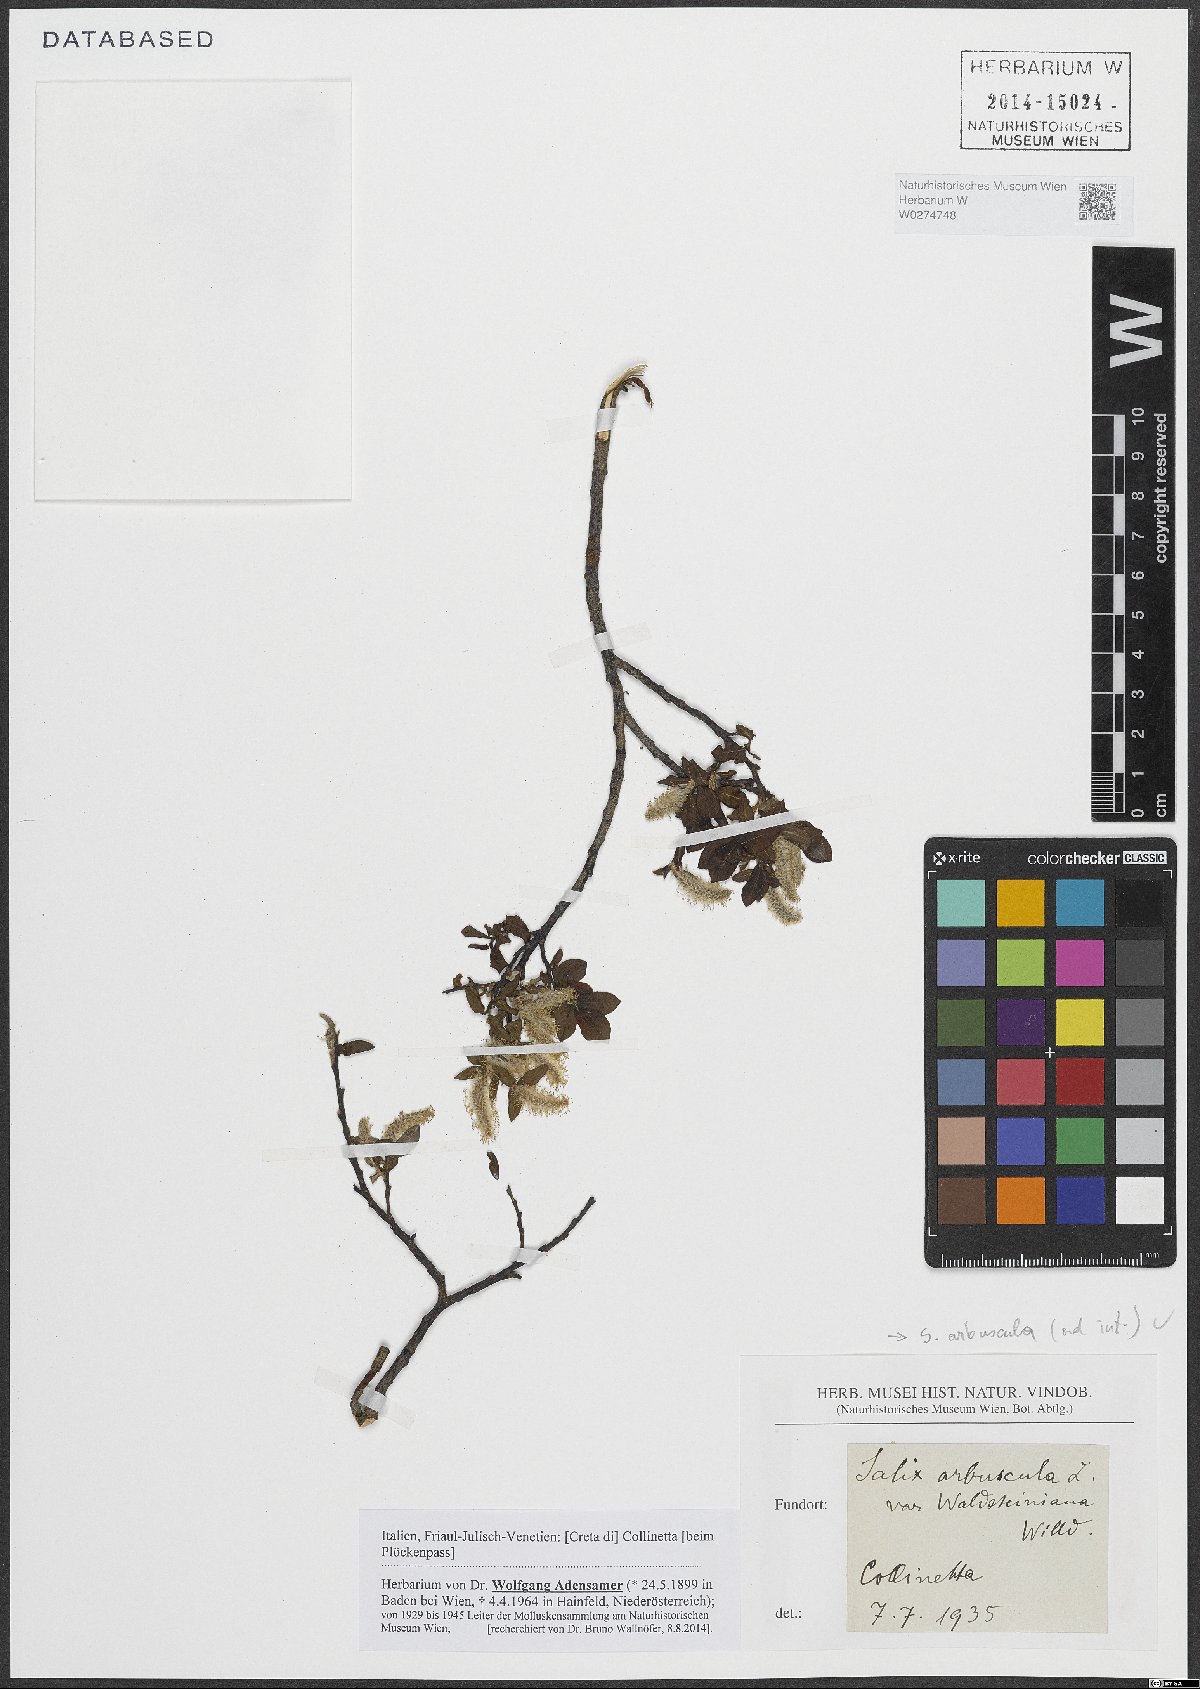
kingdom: Plantae
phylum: Tracheophyta
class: Magnoliopsida
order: Malpighiales
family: Salicaceae
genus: Salix
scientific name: Salix arbuscula
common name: Mountain willow
